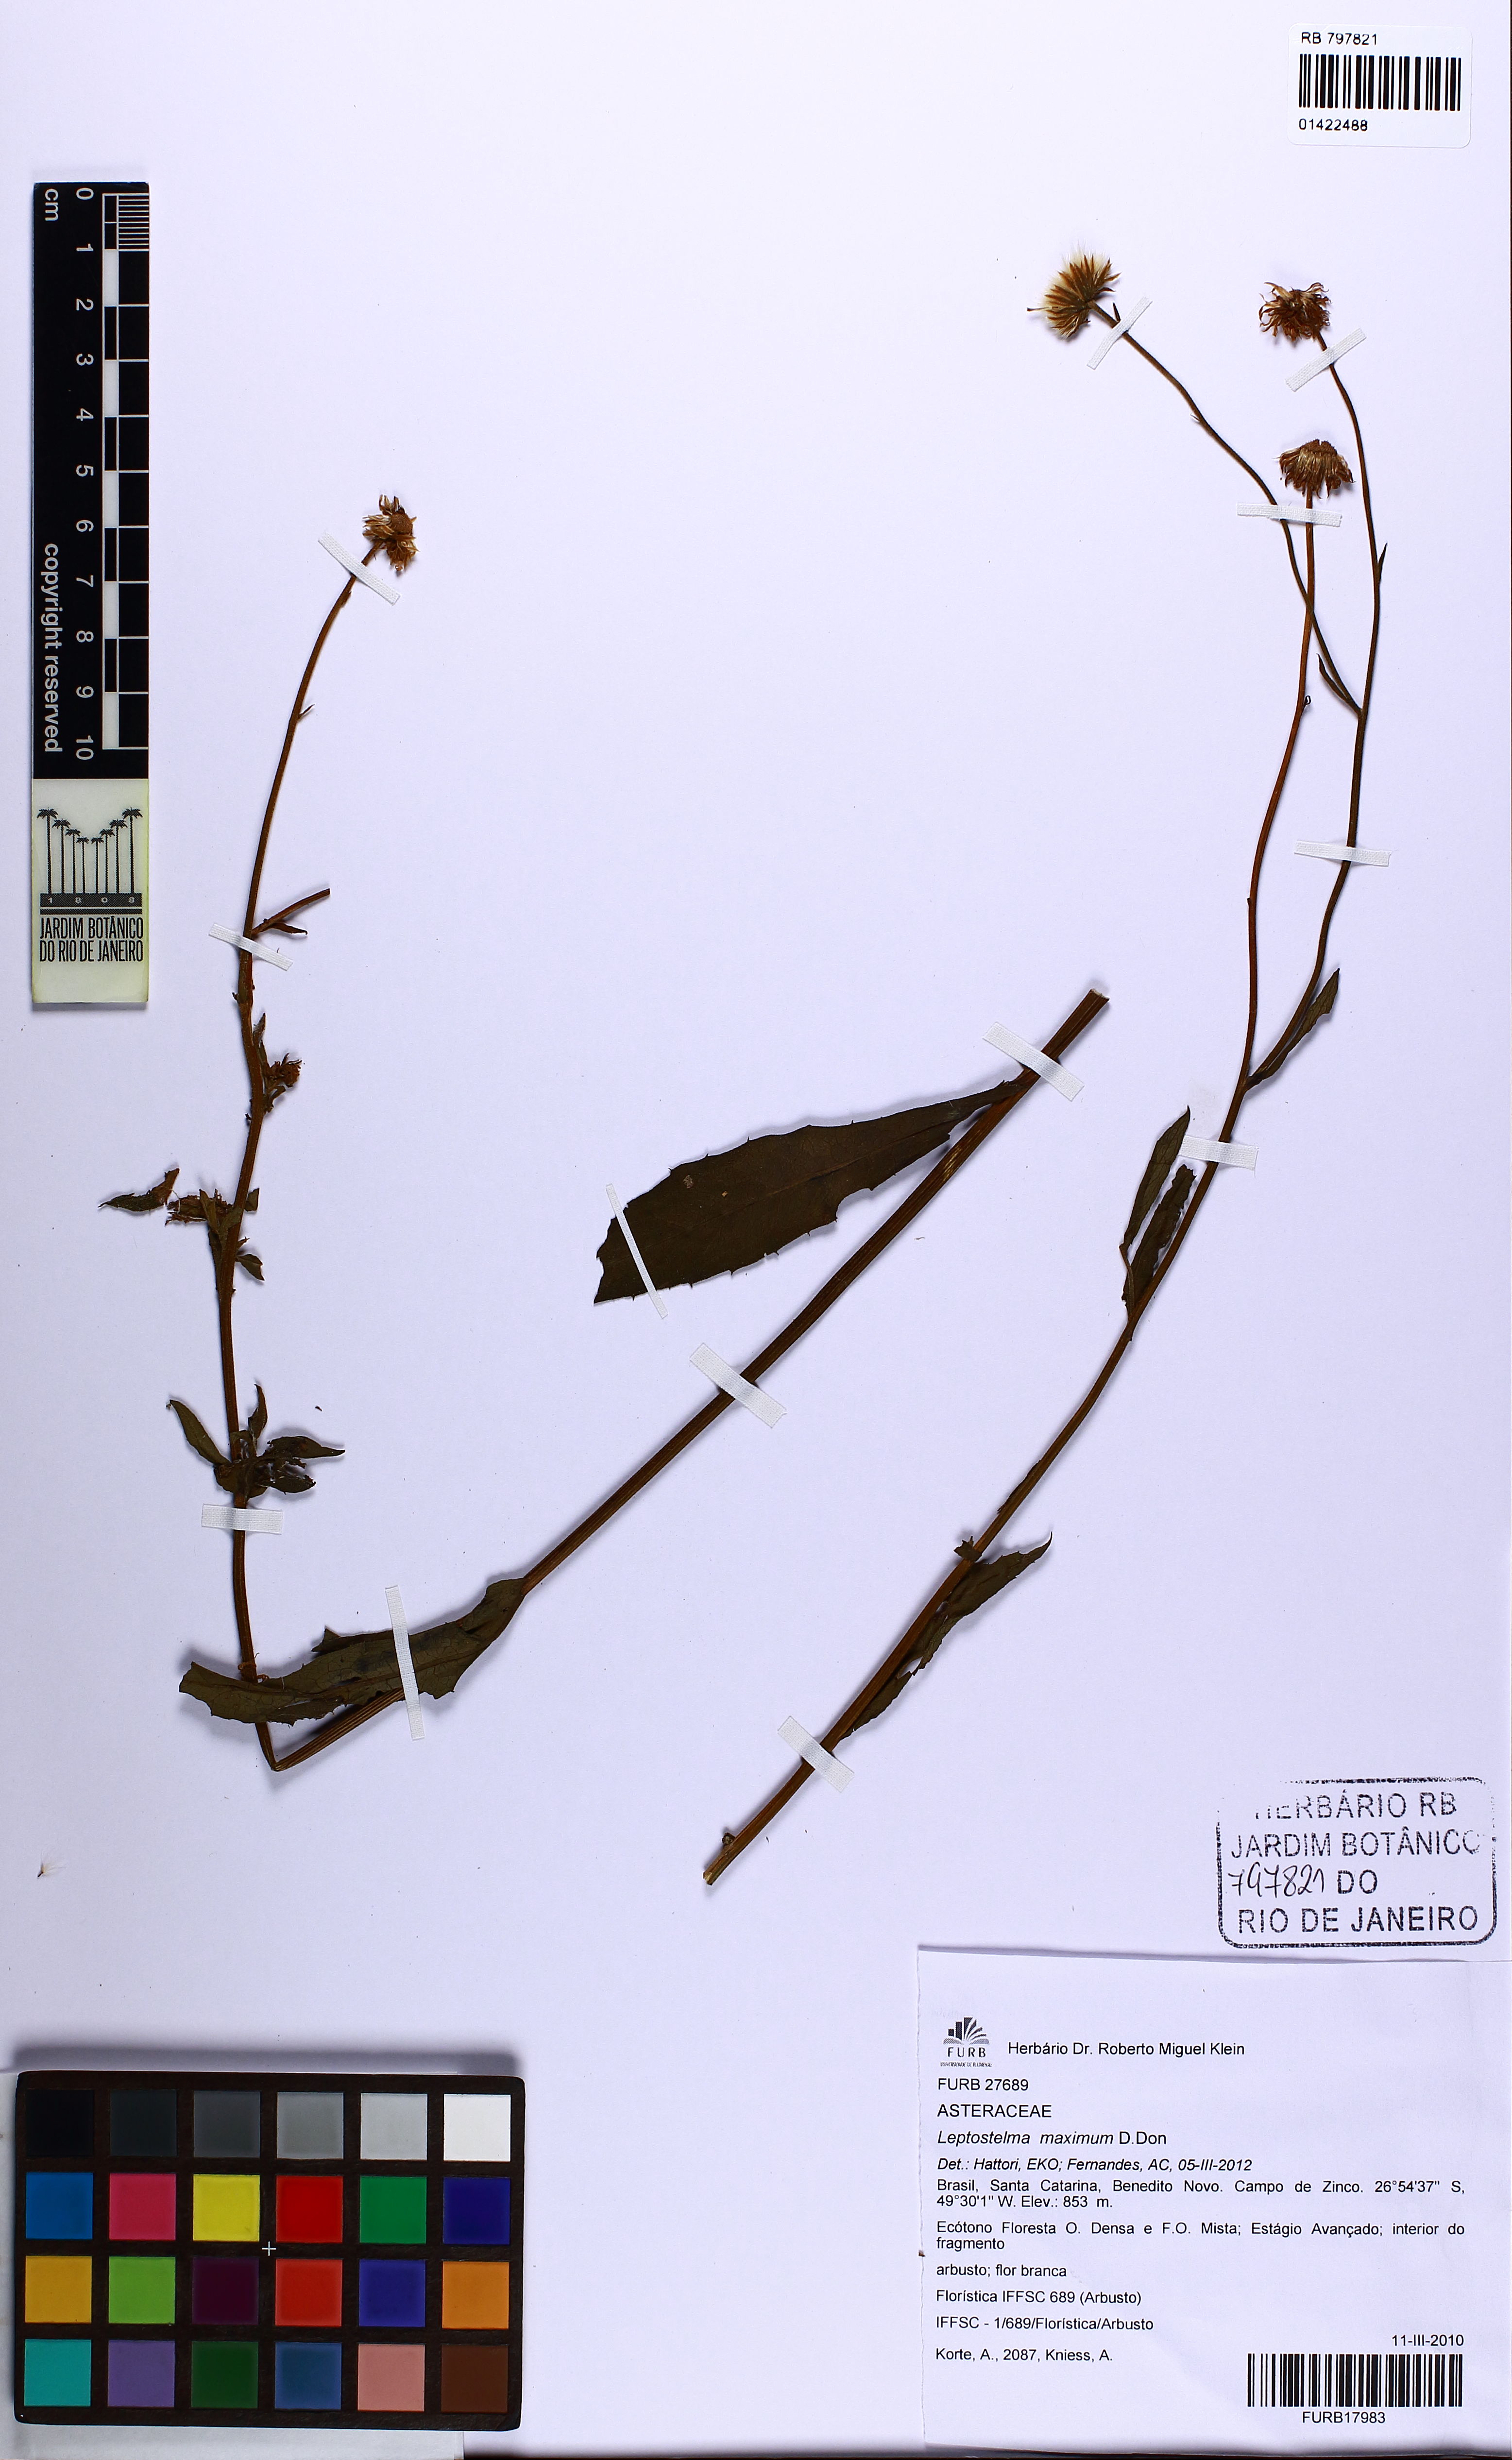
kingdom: Plantae
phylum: Tracheophyta
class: Magnoliopsida
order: Asterales
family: Asteraceae
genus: Leptostelma
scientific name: Leptostelma maxima
